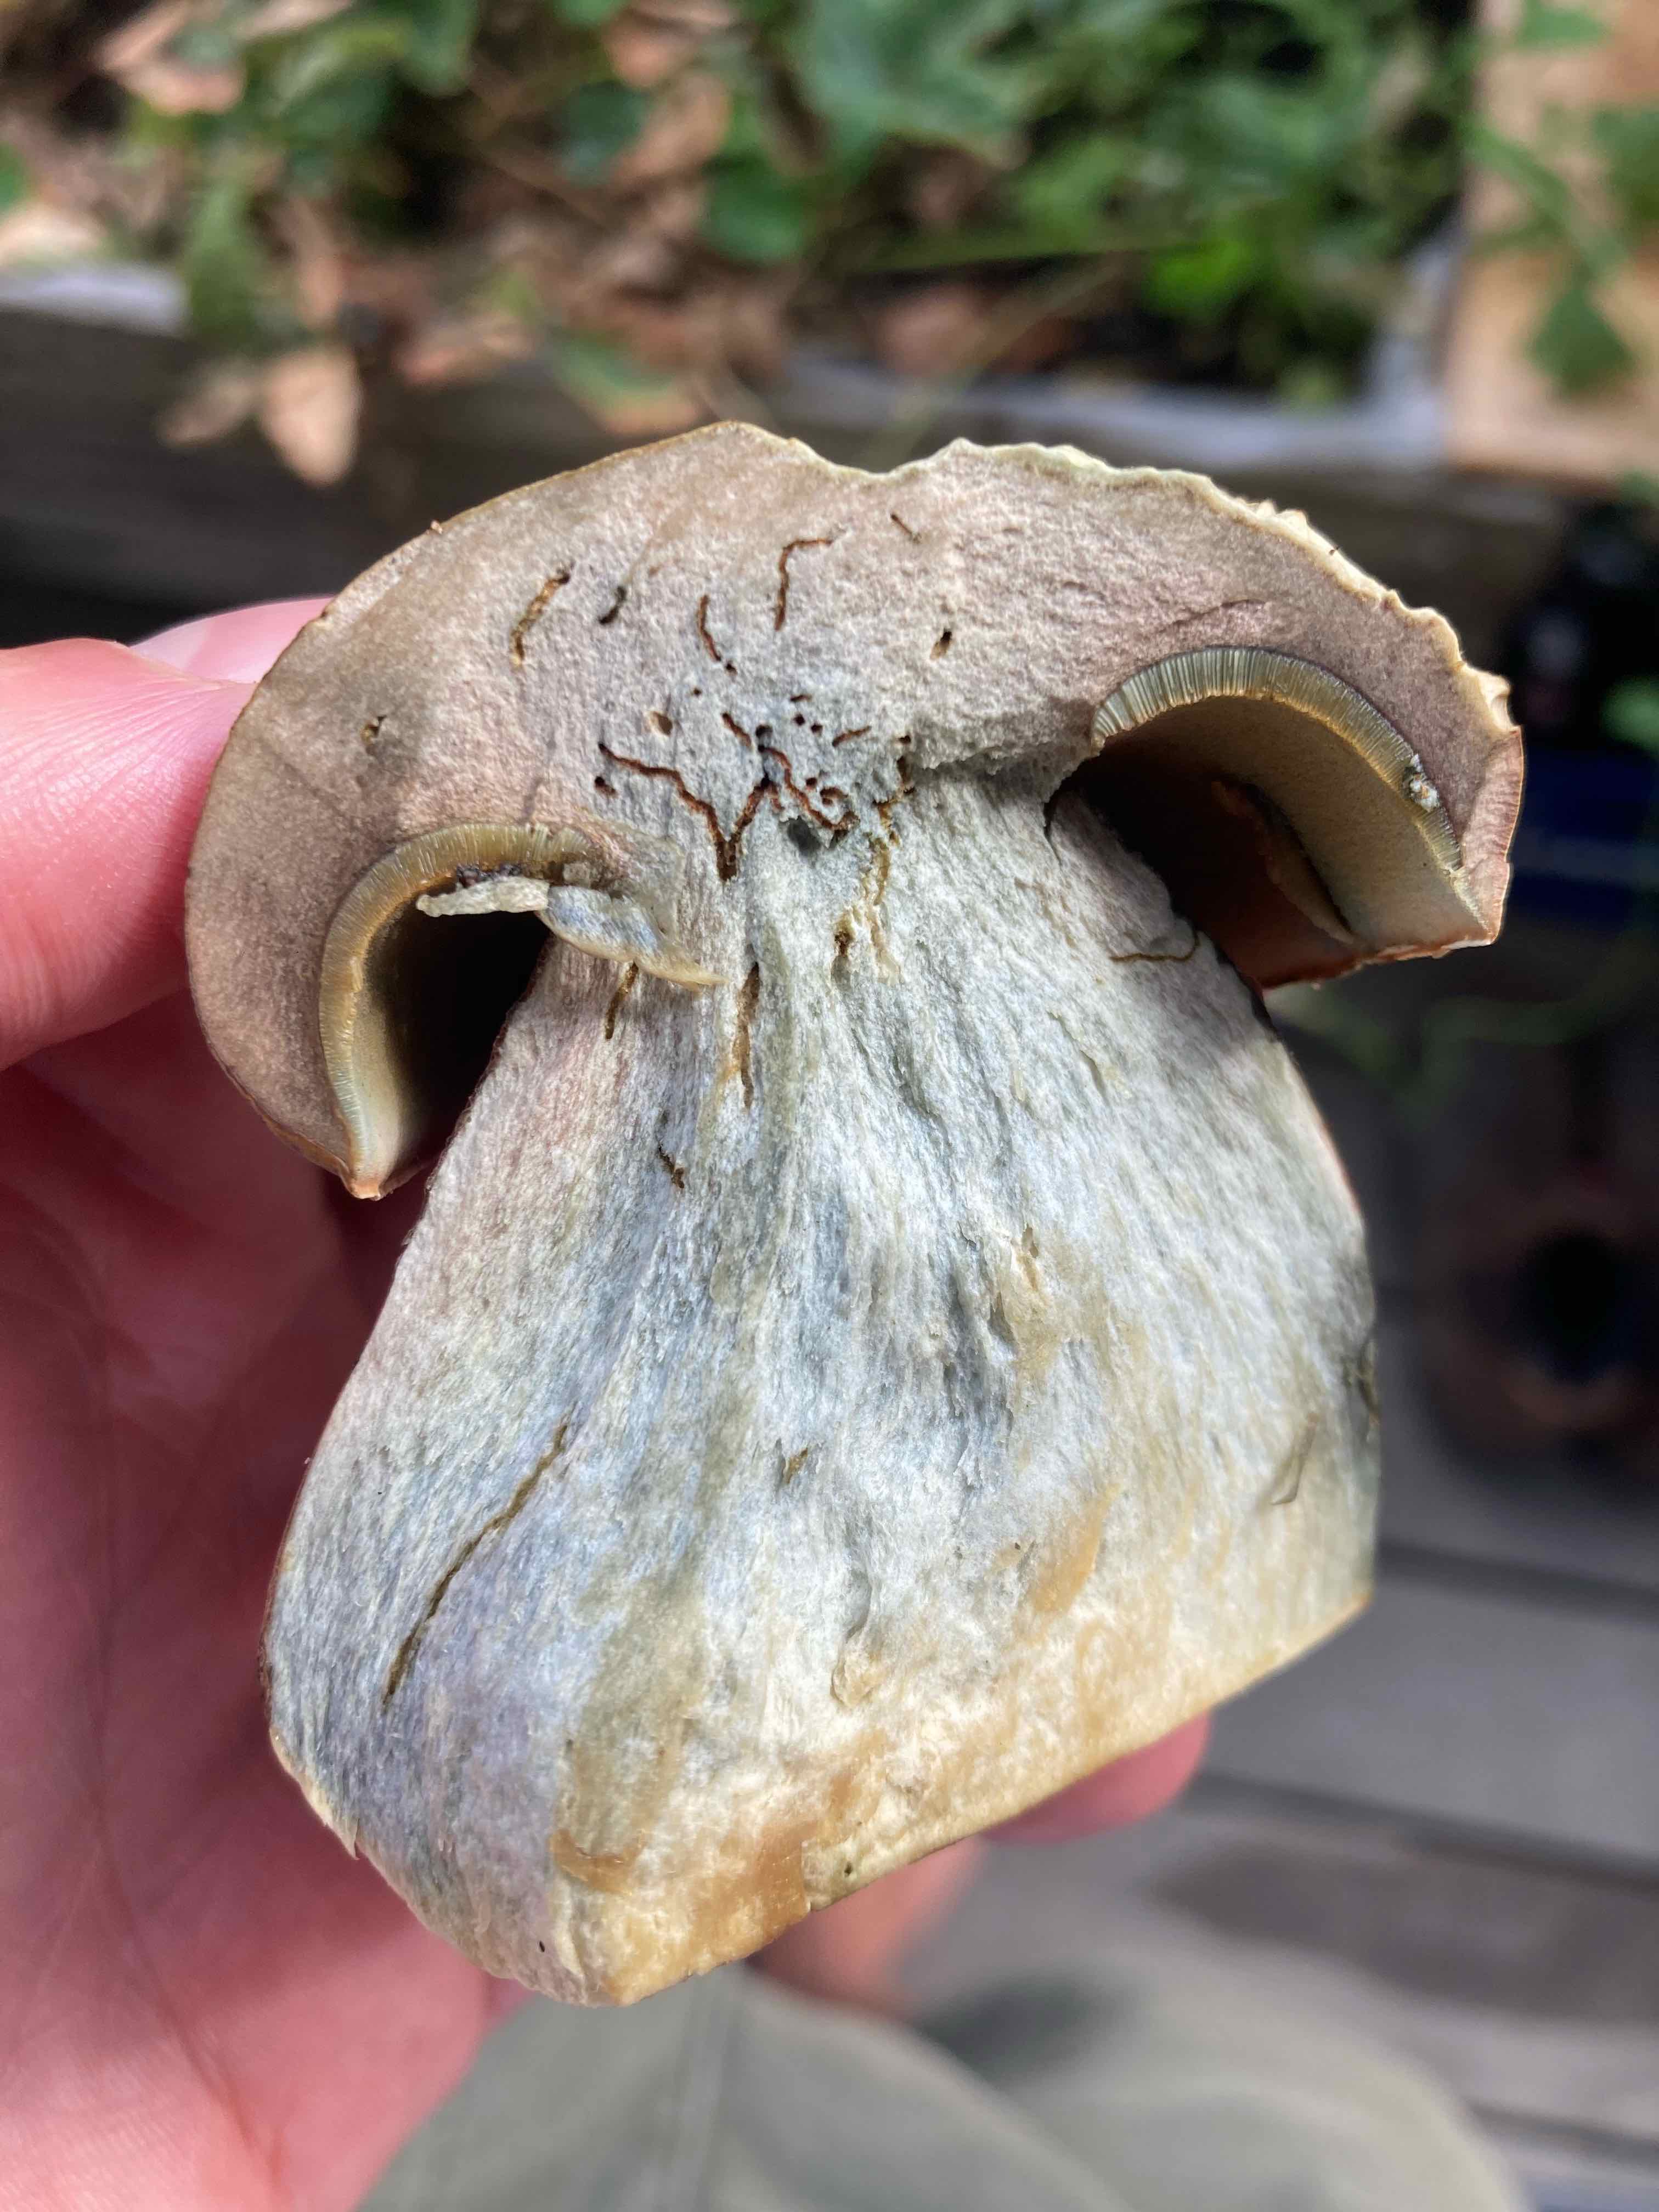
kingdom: Fungi
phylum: Basidiomycota
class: Agaricomycetes
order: Boletales
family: Boletaceae
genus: Suillellus
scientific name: Suillellus luridus
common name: netstokket indigorørhat
